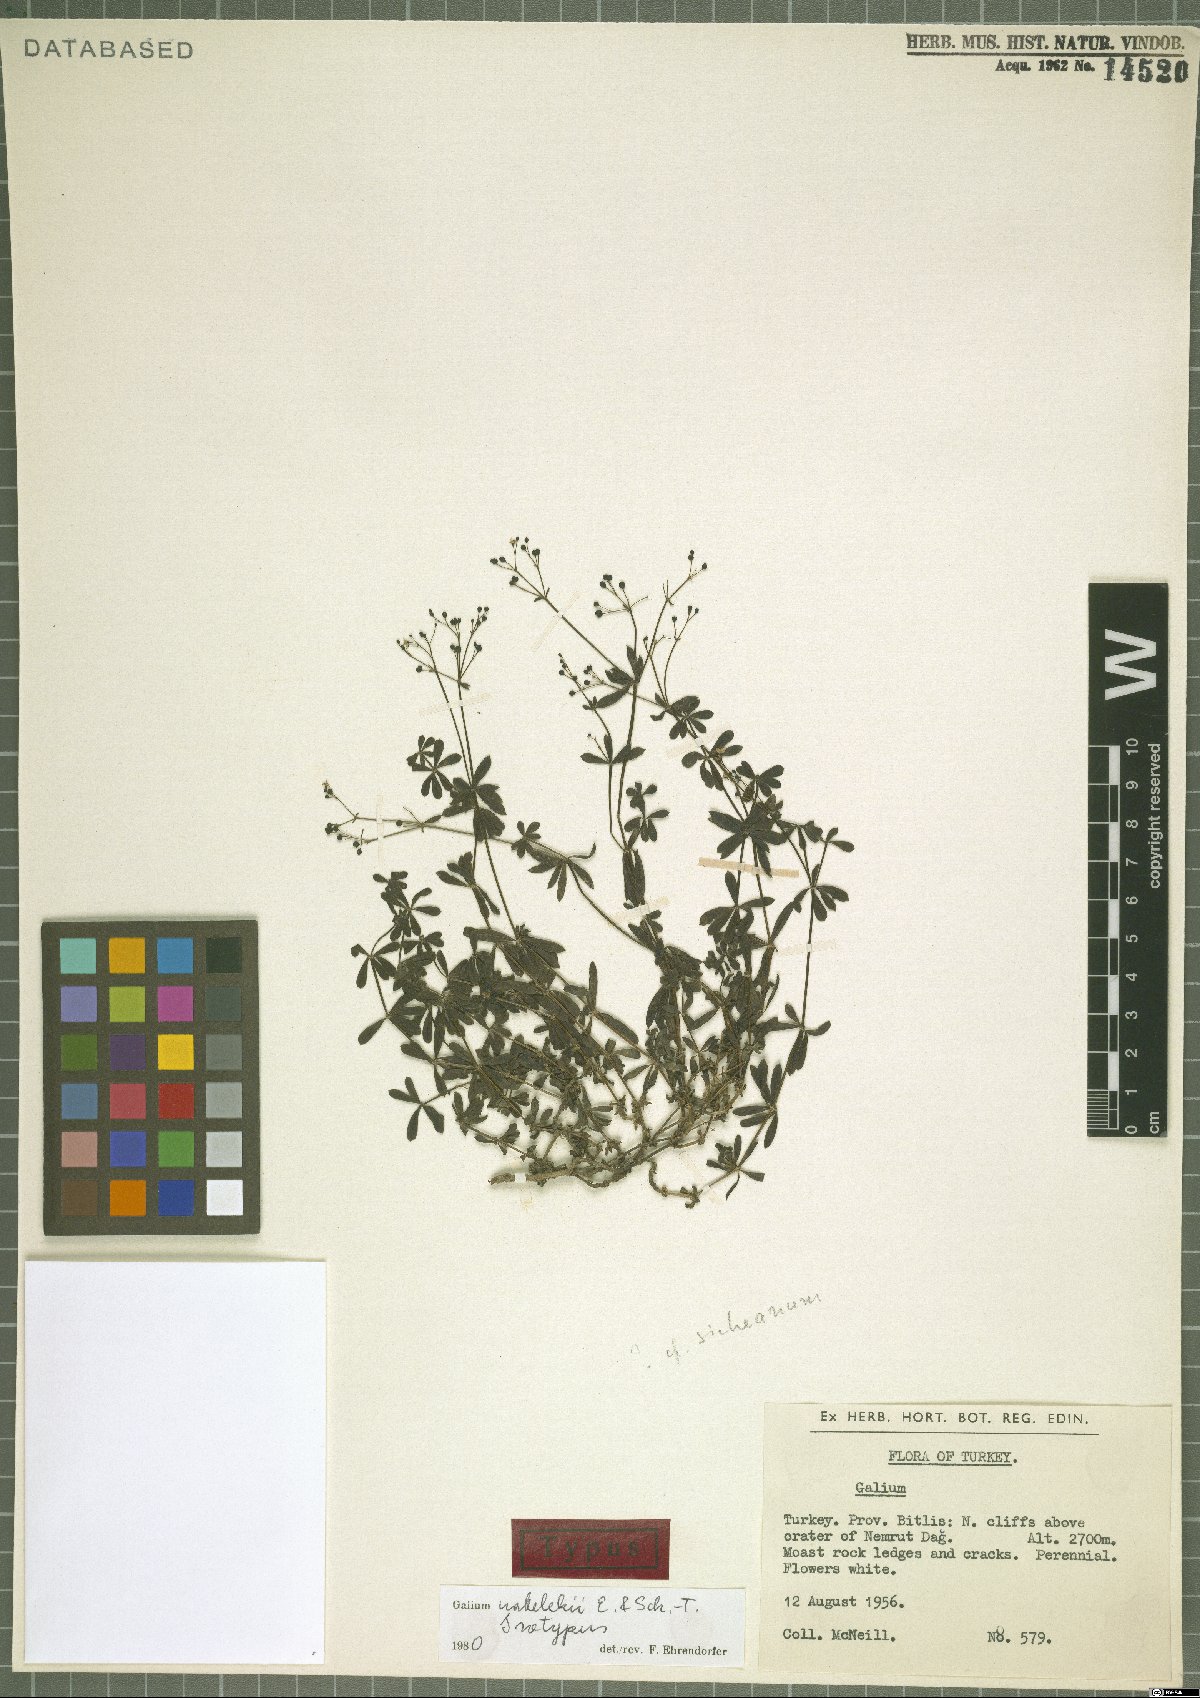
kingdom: Plantae
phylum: Tracheophyta
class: Magnoliopsida
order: Gentianales
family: Rubiaceae
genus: Galium
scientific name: Galium nabelekii
